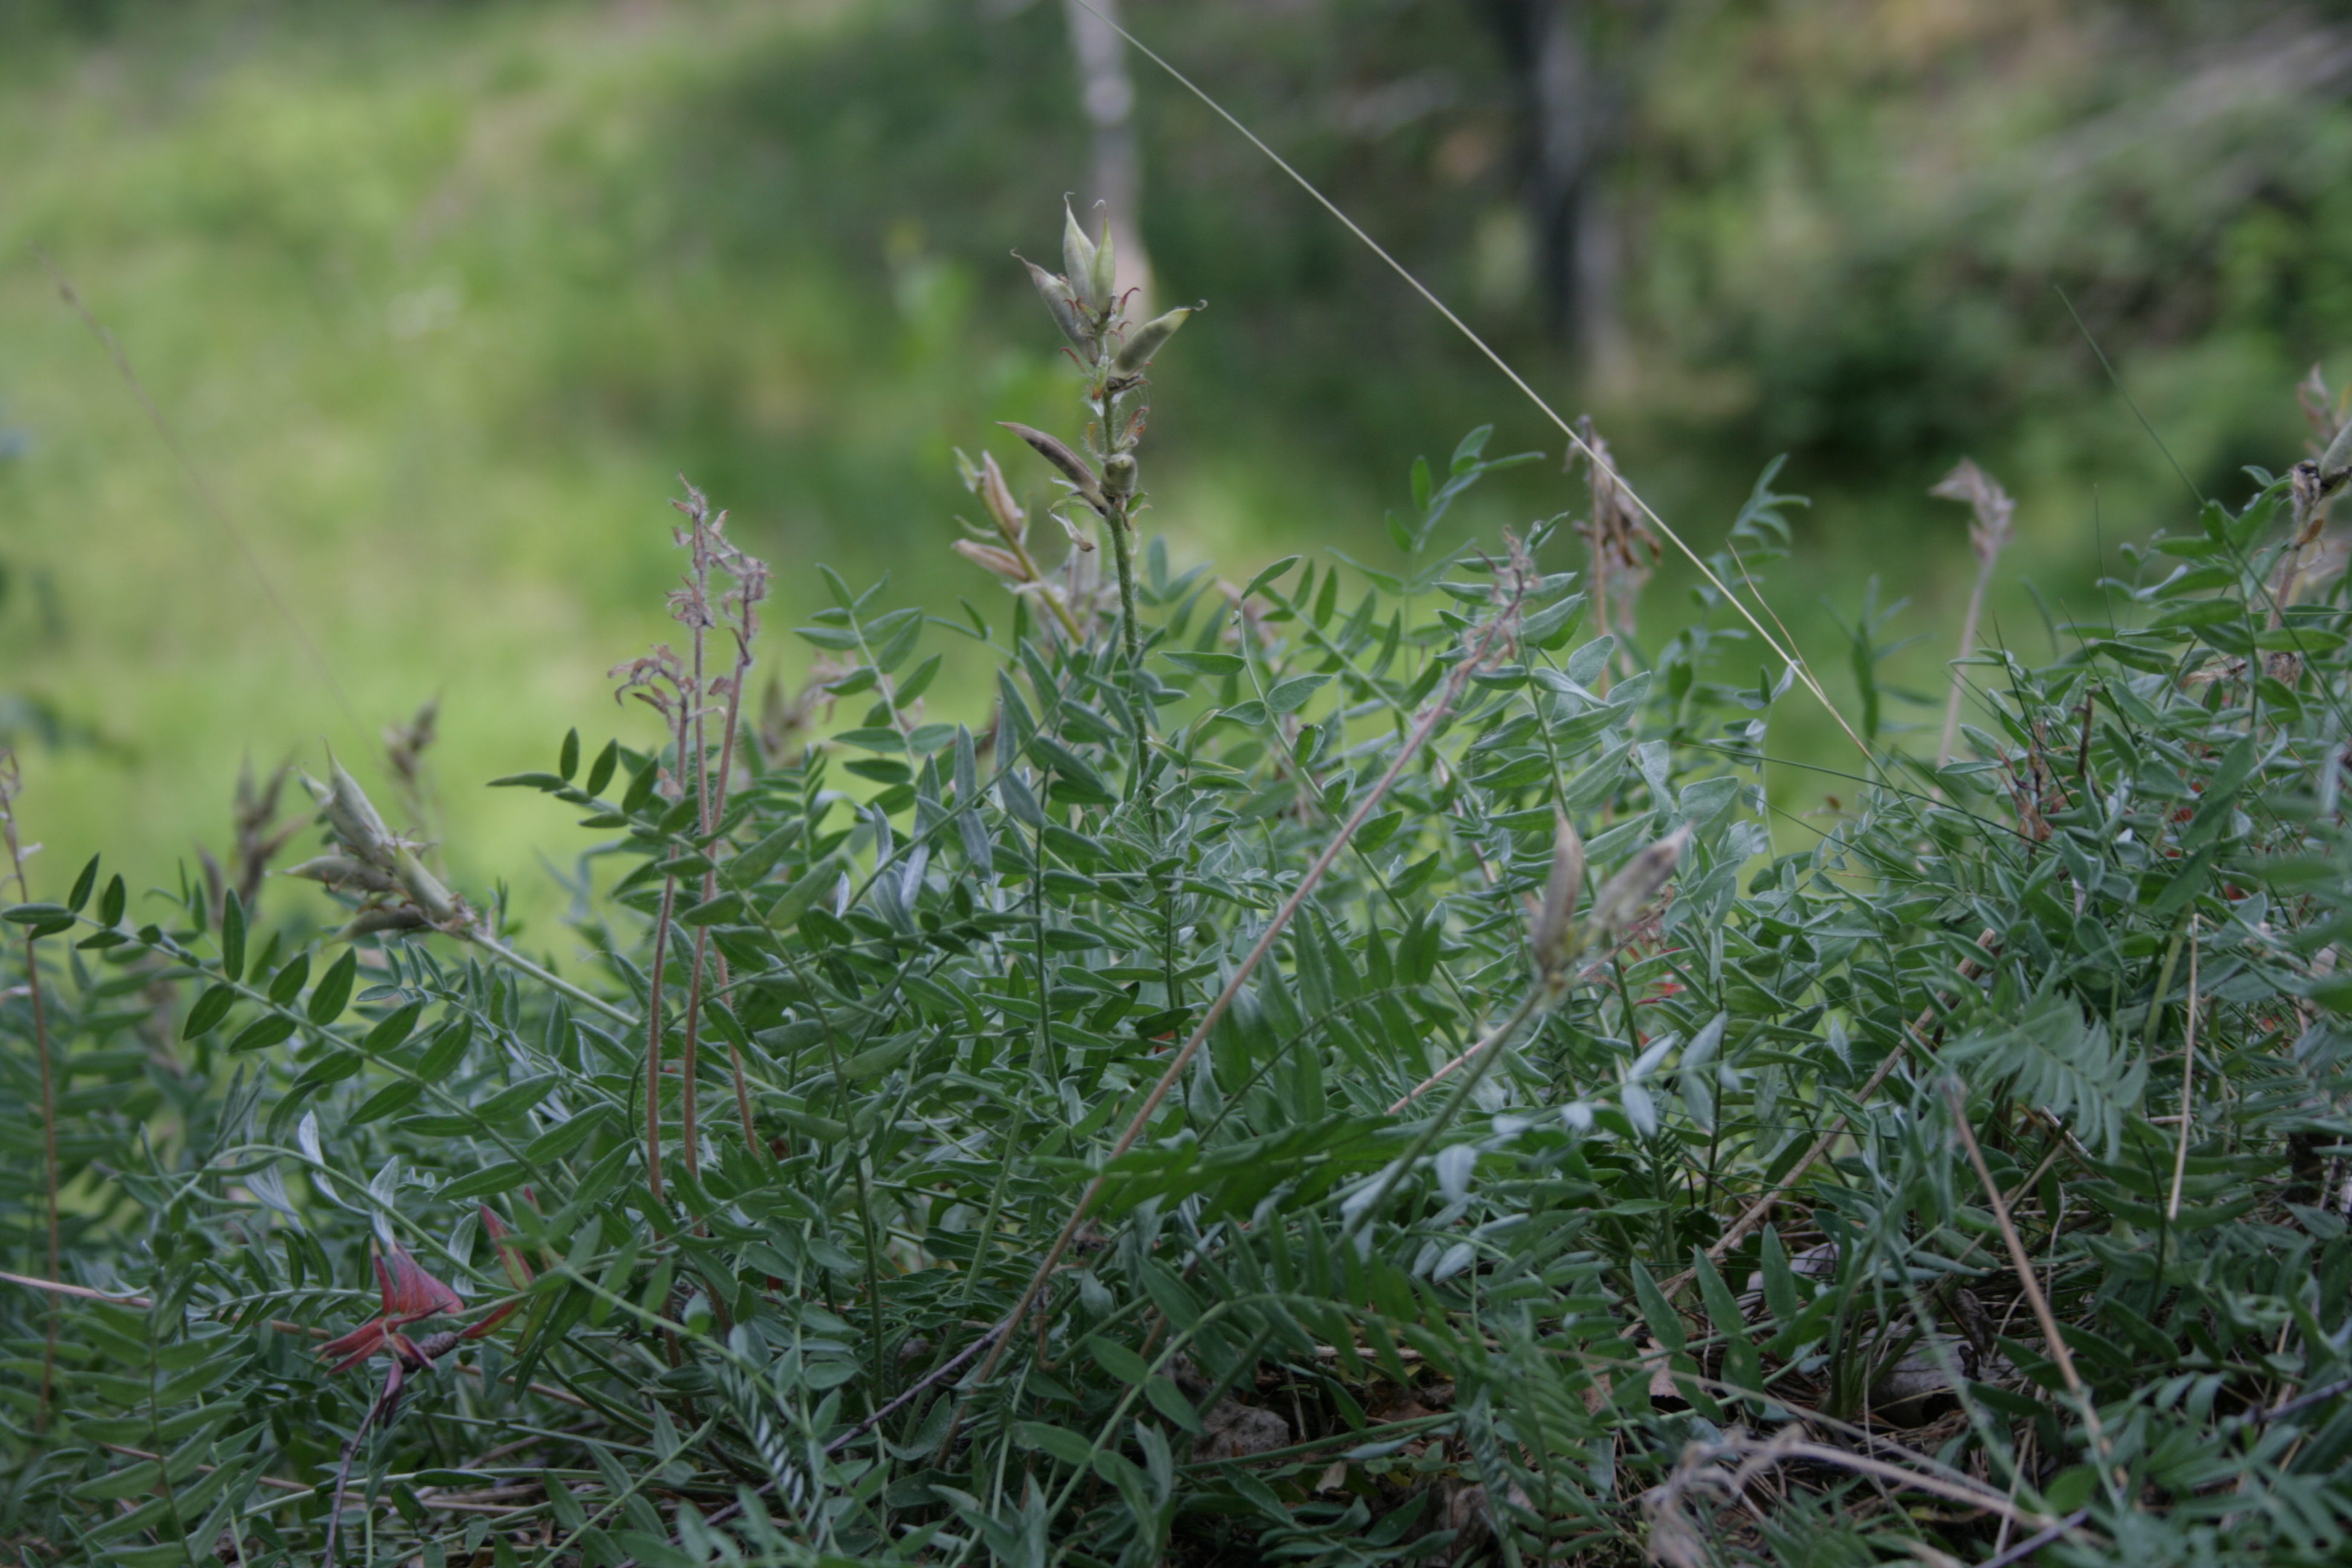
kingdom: Plantae
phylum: Tracheophyta
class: Magnoliopsida
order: Fabales
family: Fabaceae
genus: Oxytropis
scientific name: Oxytropis sordida
